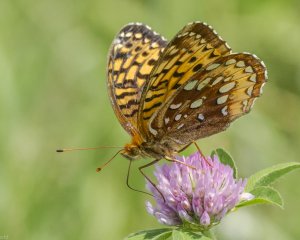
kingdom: Animalia
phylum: Arthropoda
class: Insecta
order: Lepidoptera
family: Nymphalidae
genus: Speyeria
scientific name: Speyeria cybele
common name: Great Spangled Fritillary
